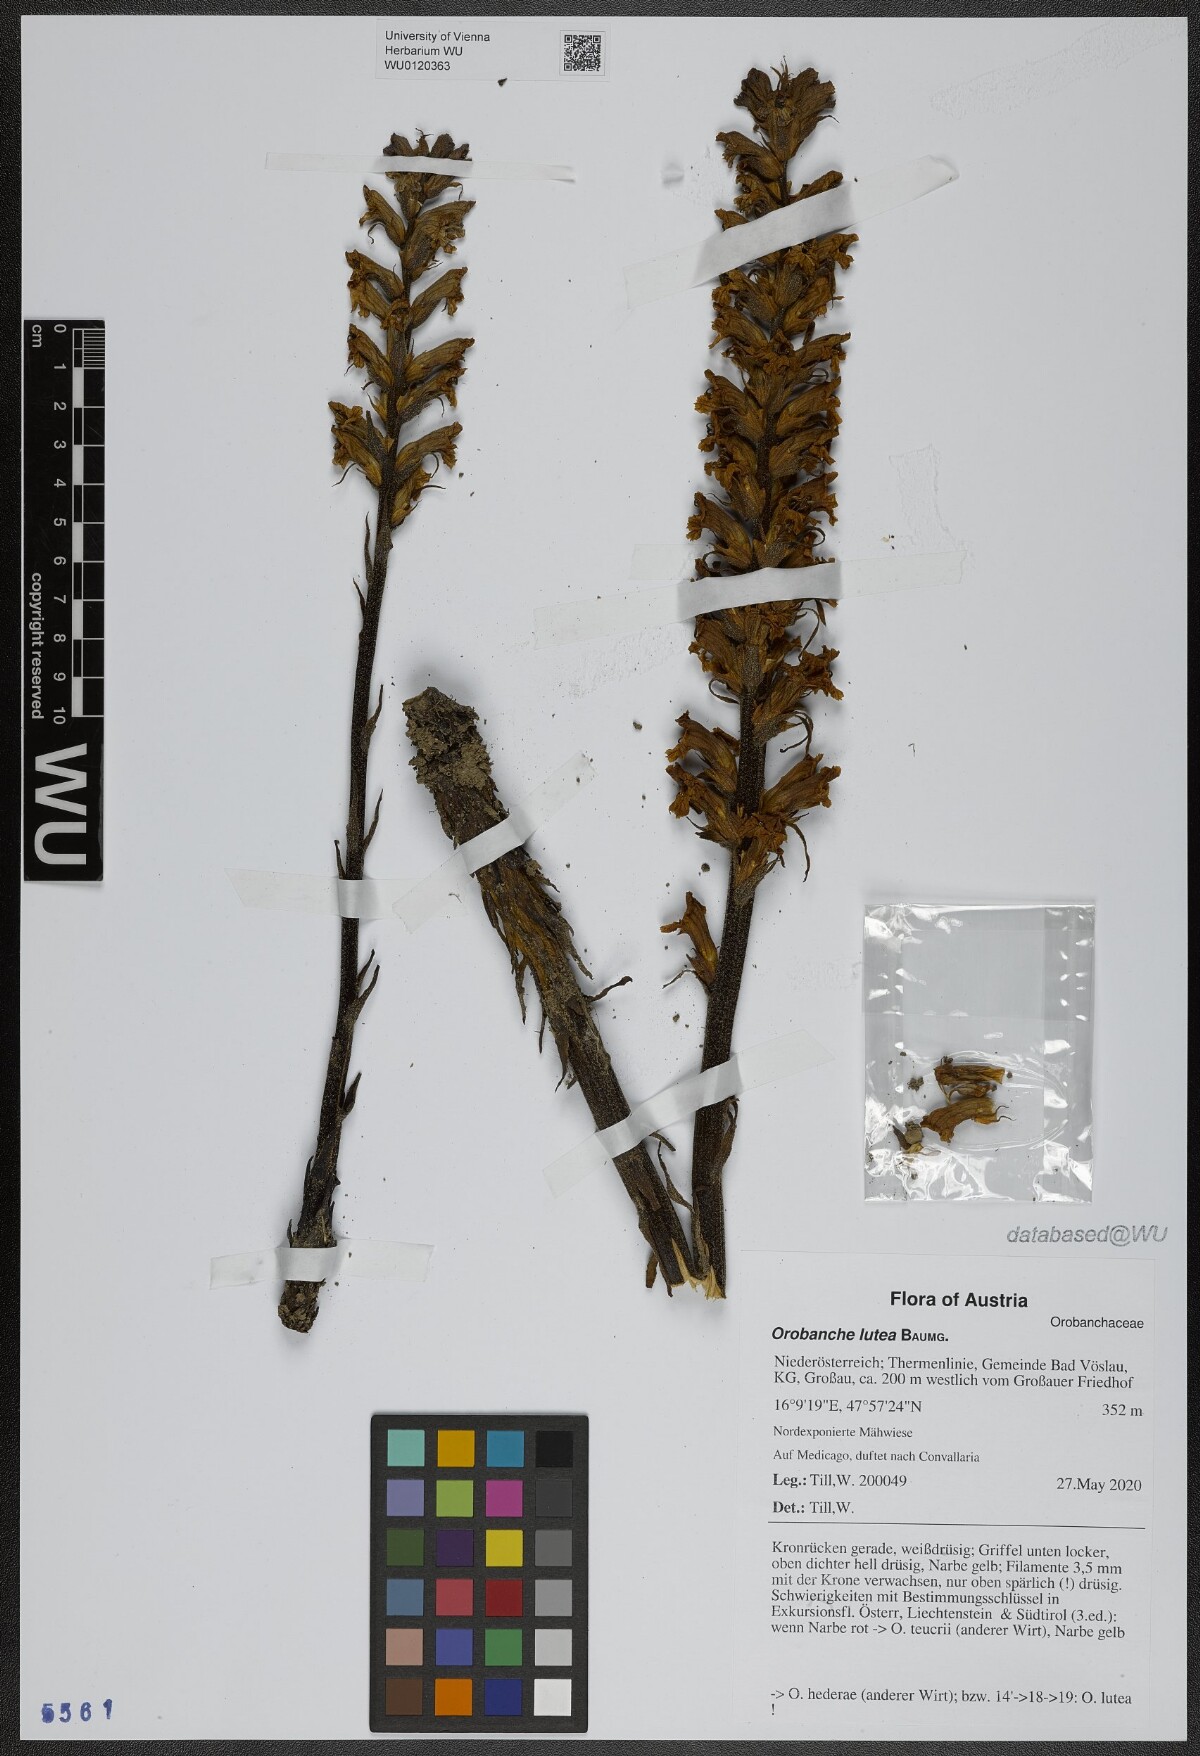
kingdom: Plantae
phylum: Tracheophyta
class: Magnoliopsida
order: Lamiales
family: Orobanchaceae
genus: Orobanche
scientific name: Orobanche lutea
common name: Yellow broomrape
